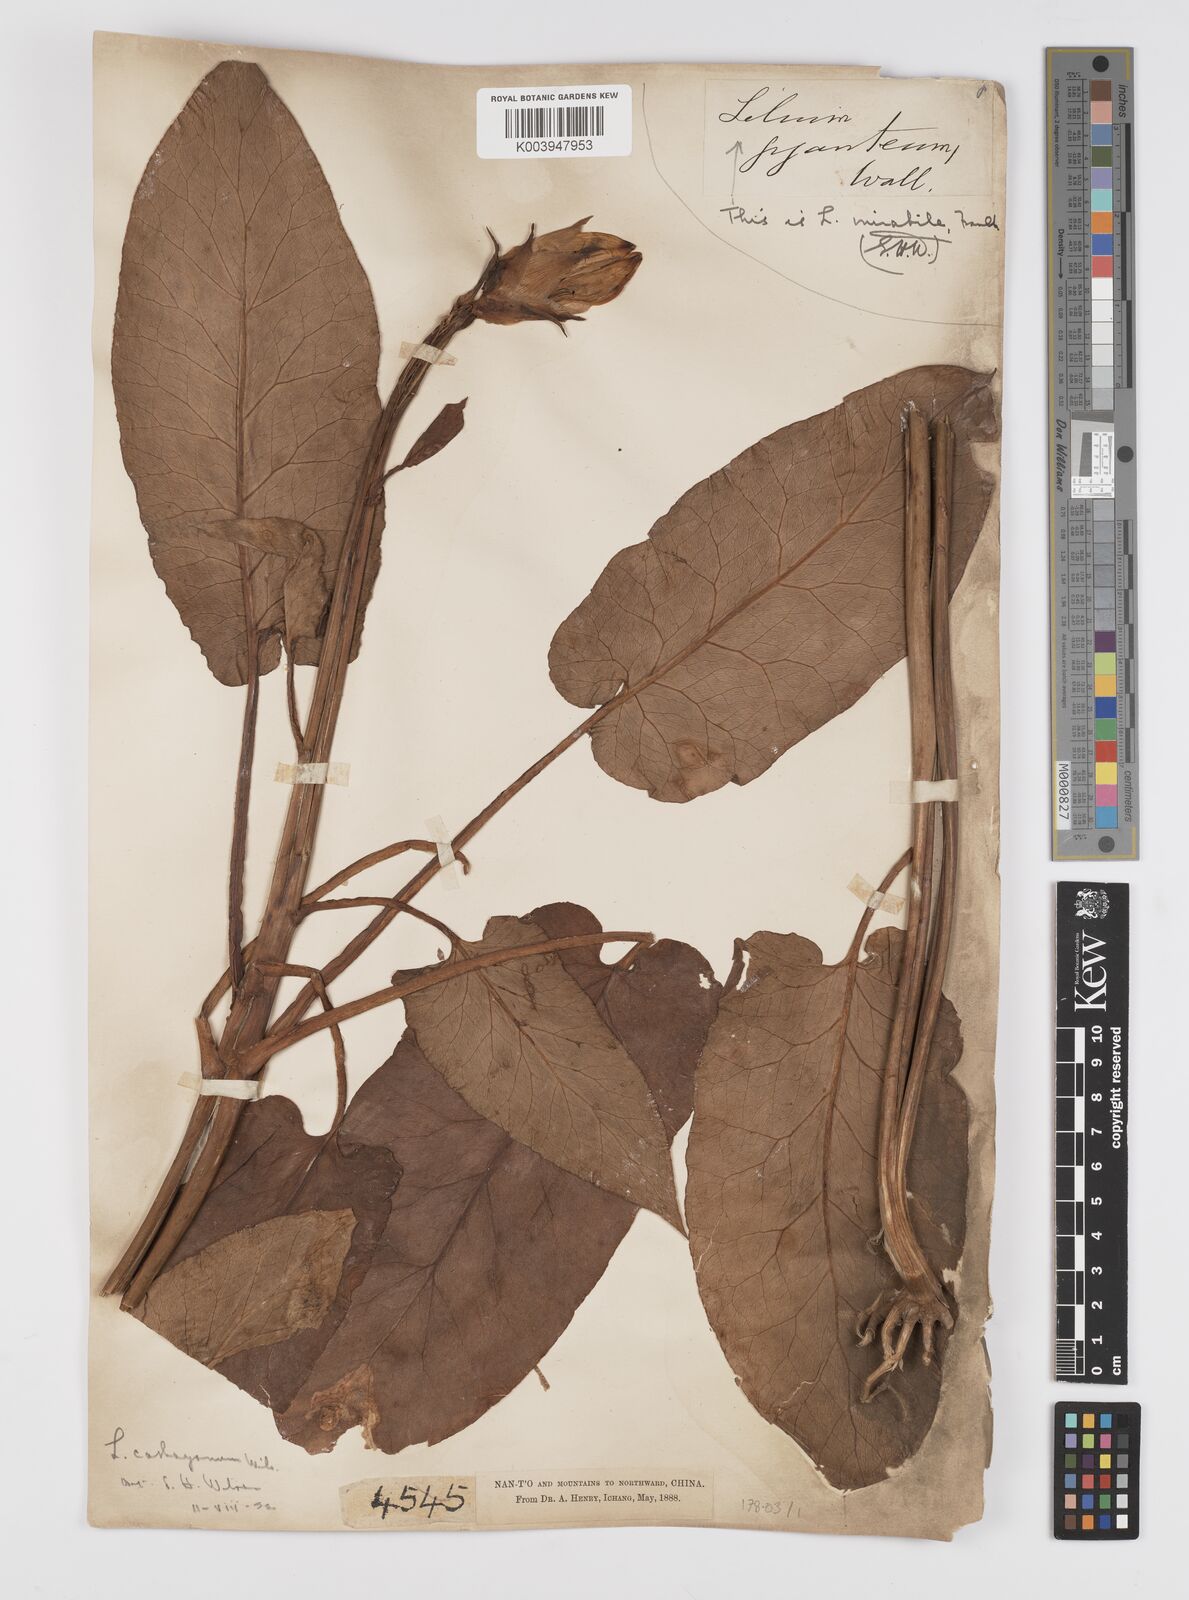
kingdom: Plantae
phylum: Tracheophyta
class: Liliopsida
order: Liliales
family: Liliaceae
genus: Cardiocrinum
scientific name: Cardiocrinum giganteum
